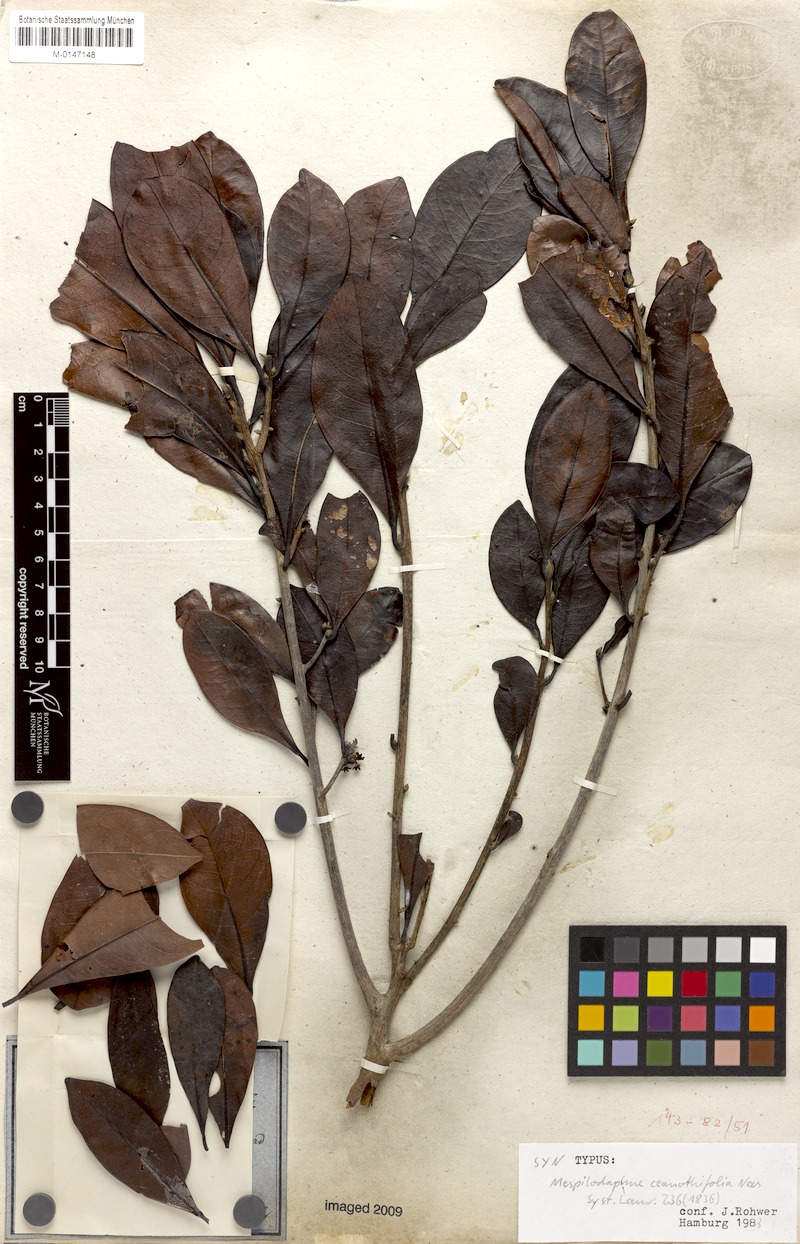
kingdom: Plantae
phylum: Tracheophyta
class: Magnoliopsida
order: Laurales
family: Lauraceae
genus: Mespilodaphne
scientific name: Mespilodaphne ceanothifolia
